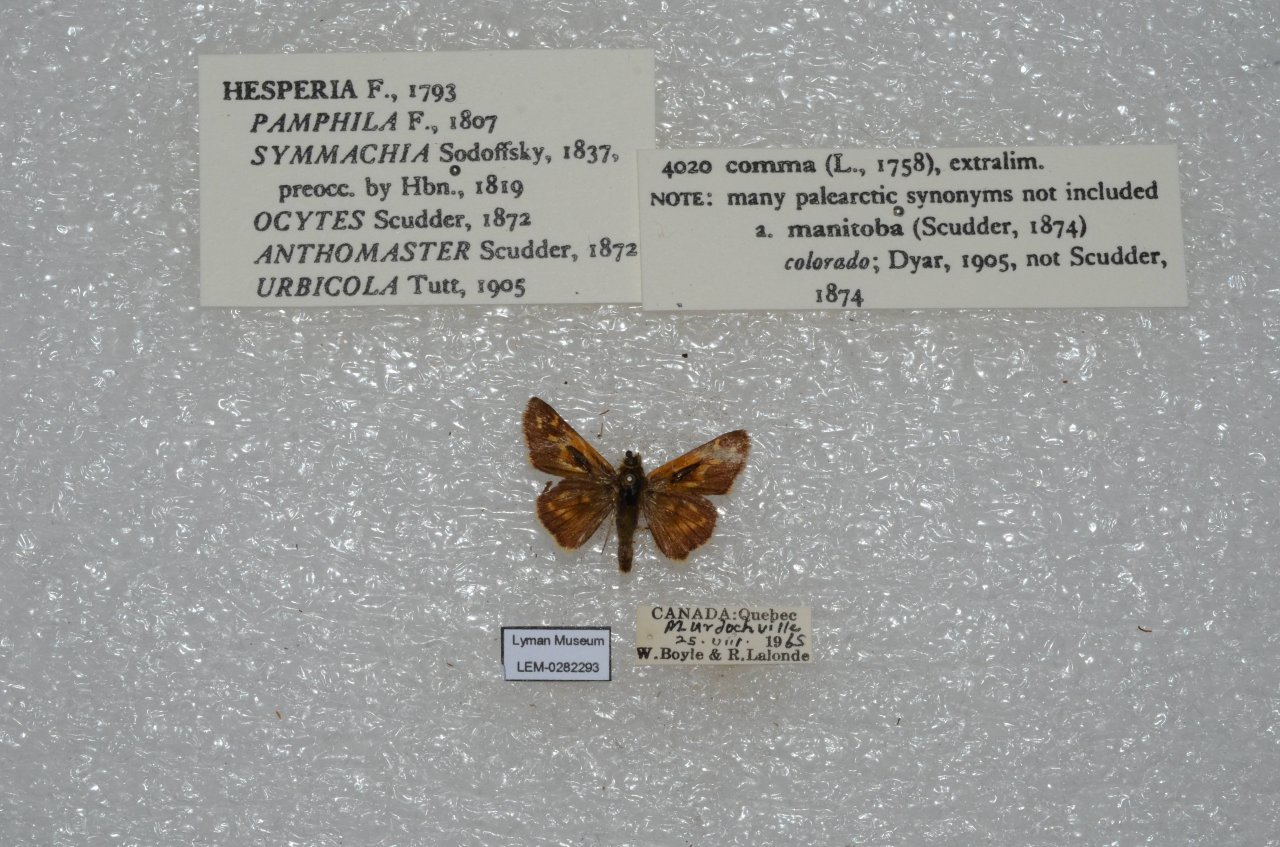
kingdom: Animalia
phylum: Arthropoda
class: Insecta
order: Lepidoptera
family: Hesperiidae
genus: Hesperia
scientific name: Hesperia comma
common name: Common Branded Skipper
